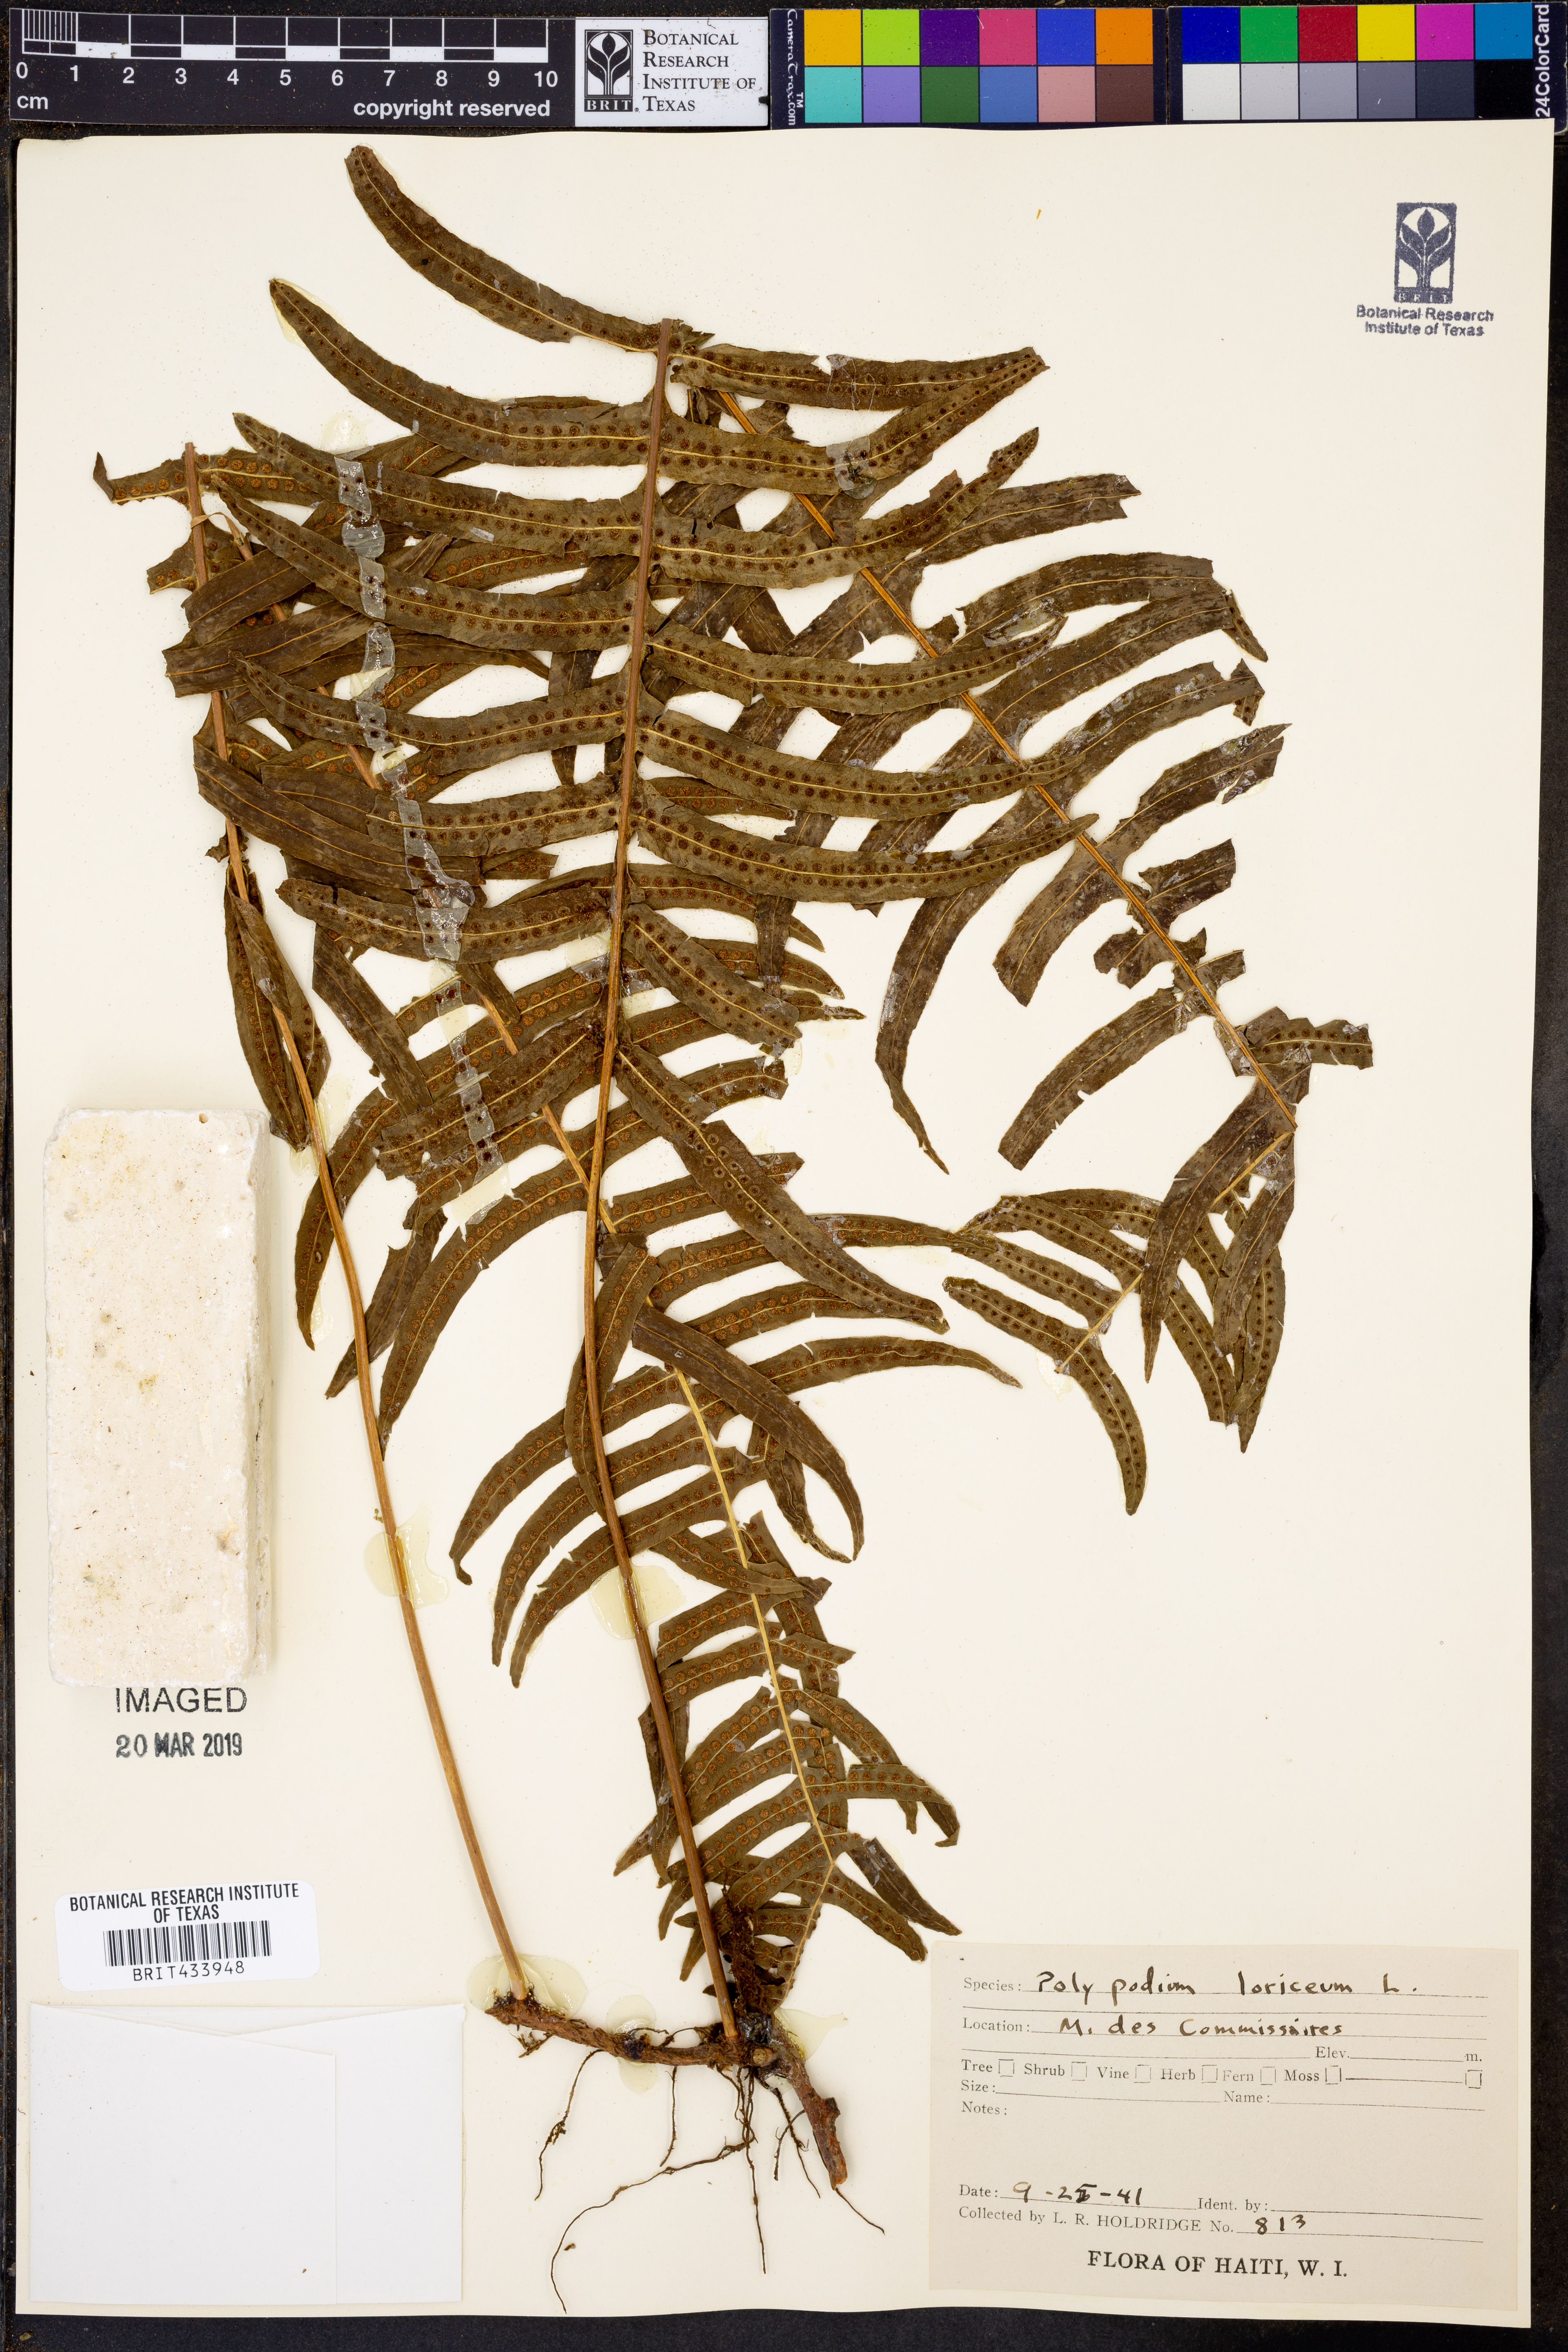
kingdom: Plantae
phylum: Tracheophyta
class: Polypodiopsida
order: Polypodiales
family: Polypodiaceae
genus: Serpocaulon
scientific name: Serpocaulon loriceum
